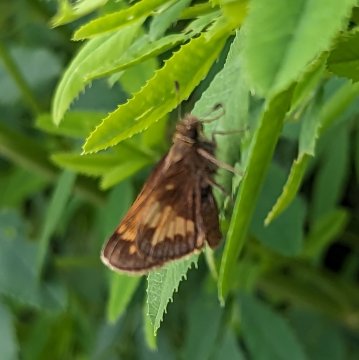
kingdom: Animalia
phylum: Arthropoda
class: Insecta
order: Lepidoptera
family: Hesperiidae
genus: Lon
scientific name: Lon hobomok
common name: Hobomok Skipper
